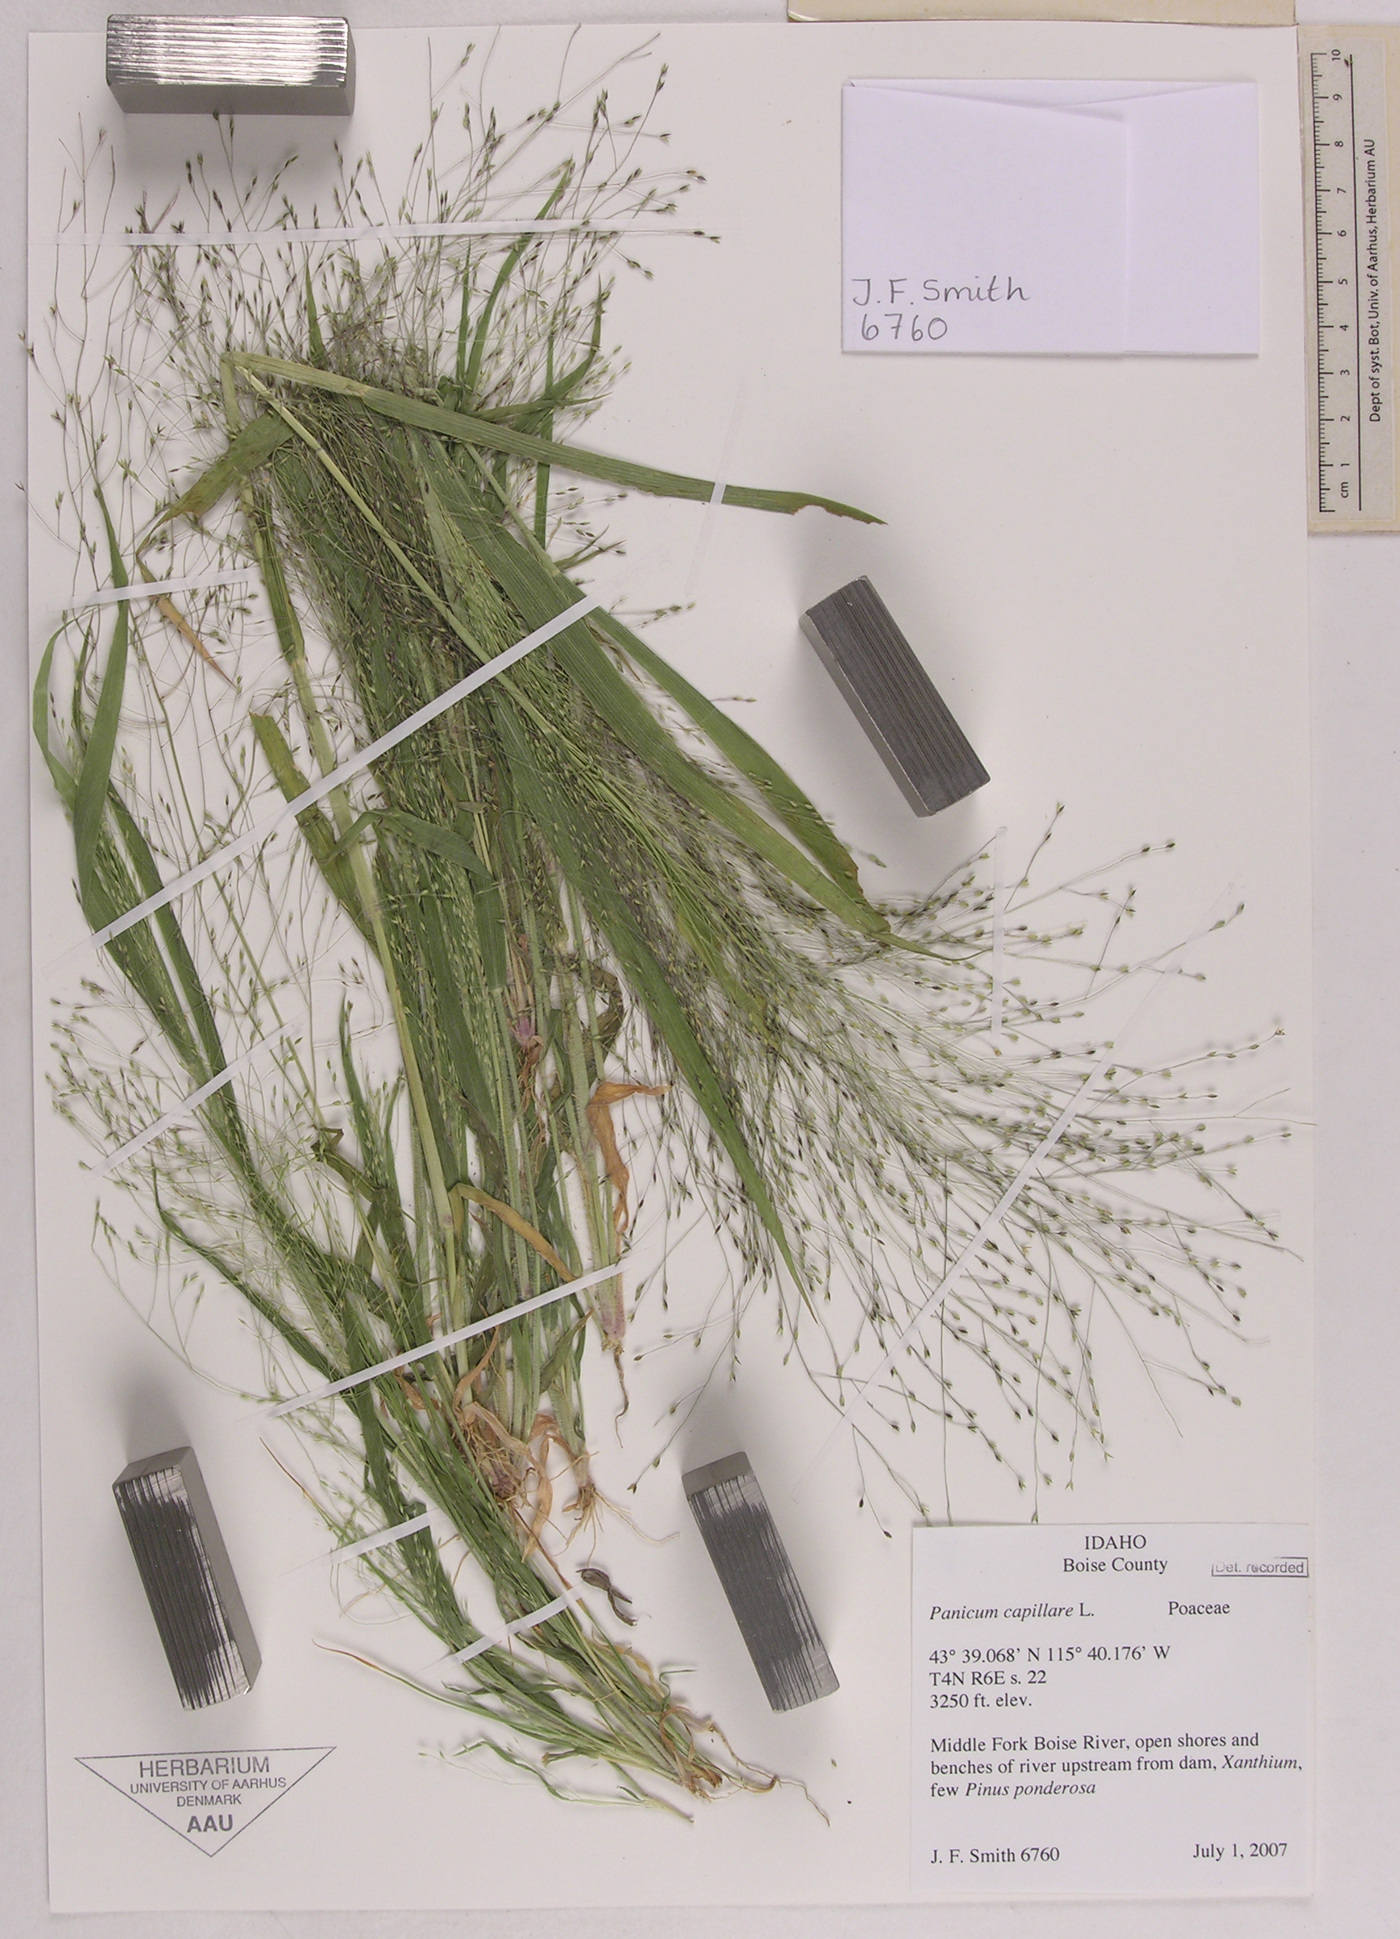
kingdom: Plantae
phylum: Tracheophyta
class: Liliopsida
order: Poales
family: Poaceae
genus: Panicum
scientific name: Panicum capillare
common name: Witch-grass
